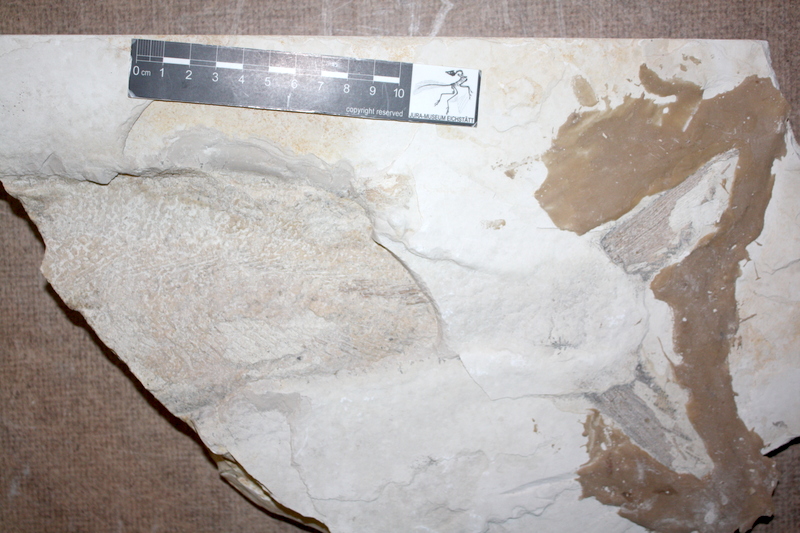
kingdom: Animalia
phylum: Chordata
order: Amiiformes
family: Caturidae
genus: Caturus
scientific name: Caturus
